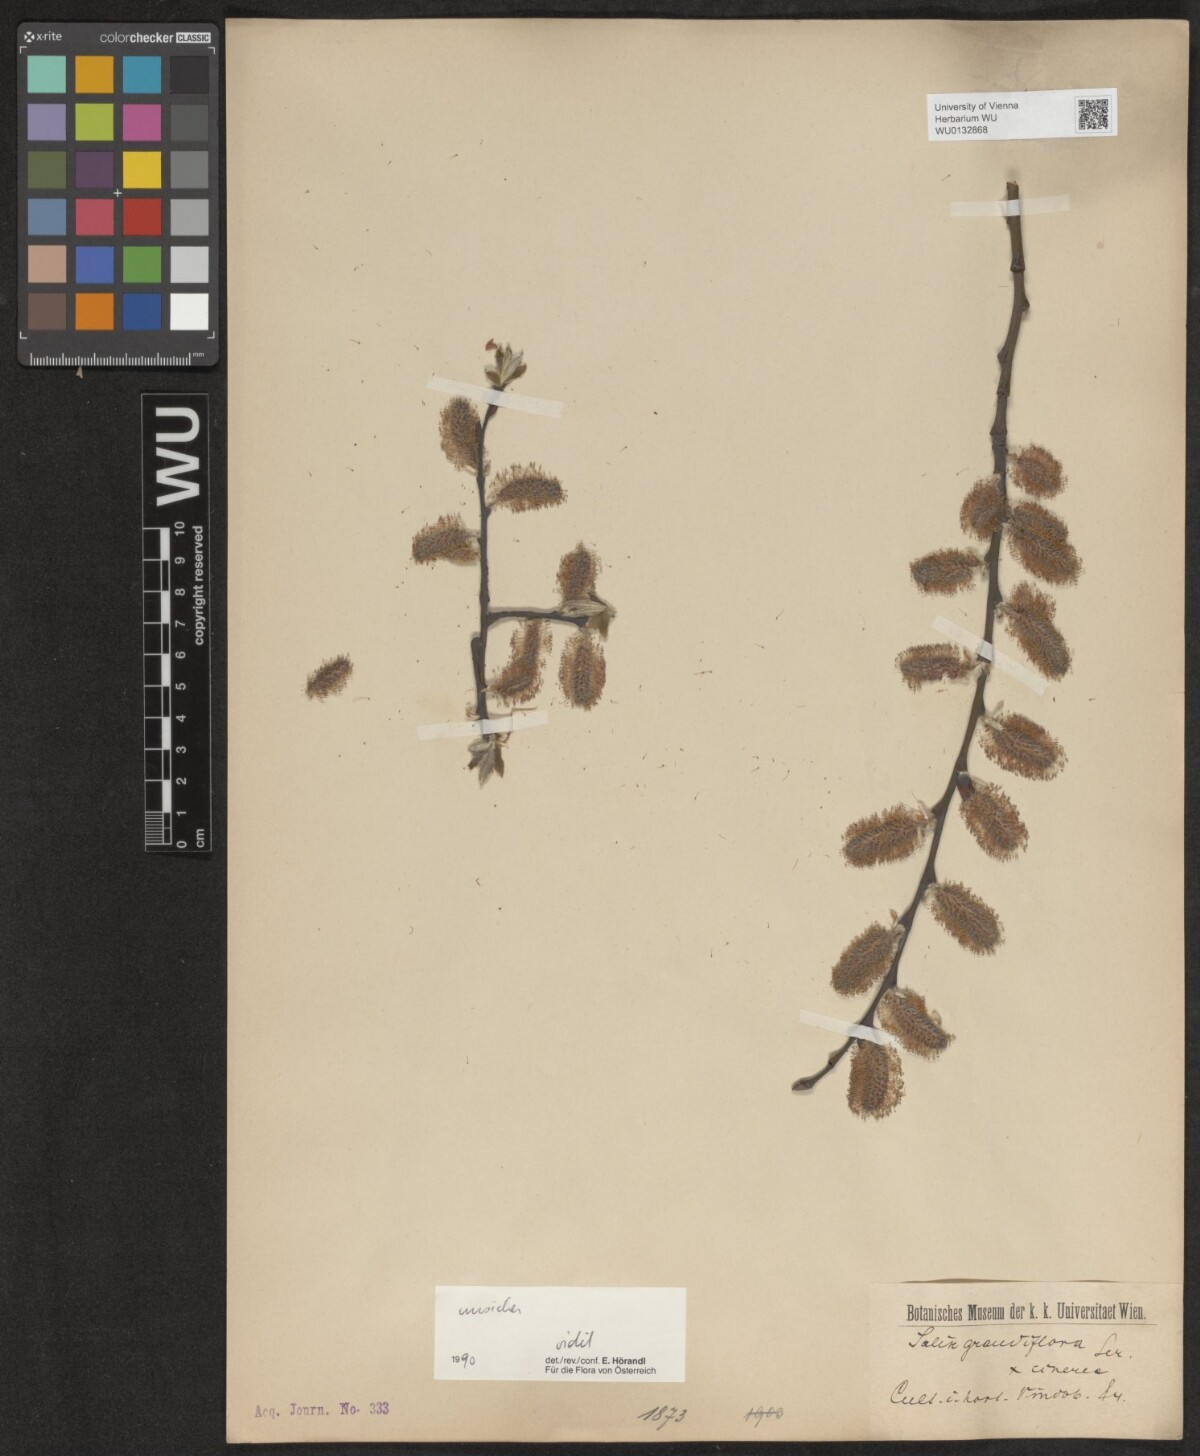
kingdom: Plantae
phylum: Tracheophyta
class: Magnoliopsida
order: Malpighiales
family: Salicaceae
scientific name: Salicaceae
